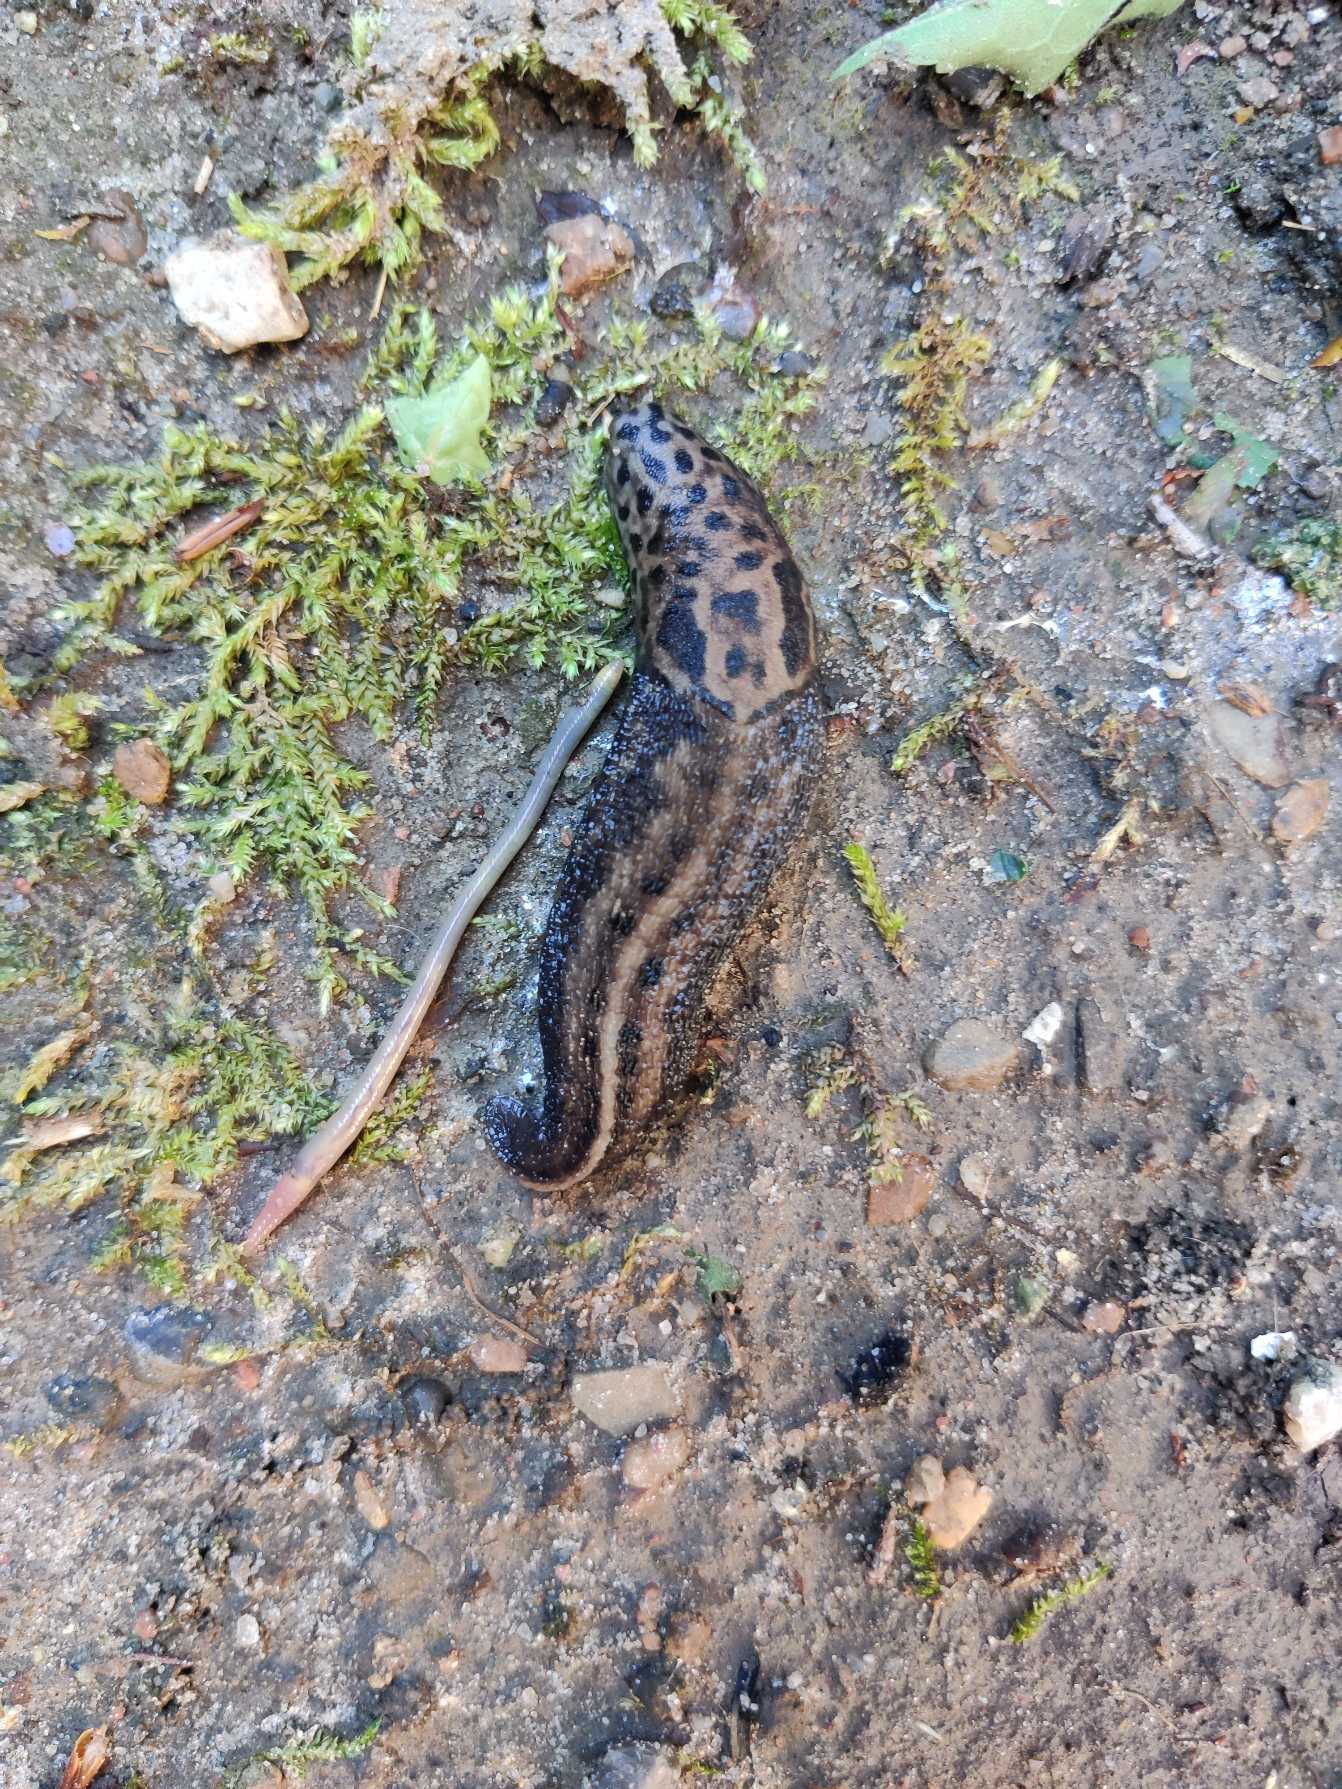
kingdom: Animalia
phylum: Mollusca
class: Gastropoda
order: Stylommatophora
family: Limacidae
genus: Limax
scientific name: Limax maximus
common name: Pantersnegl
